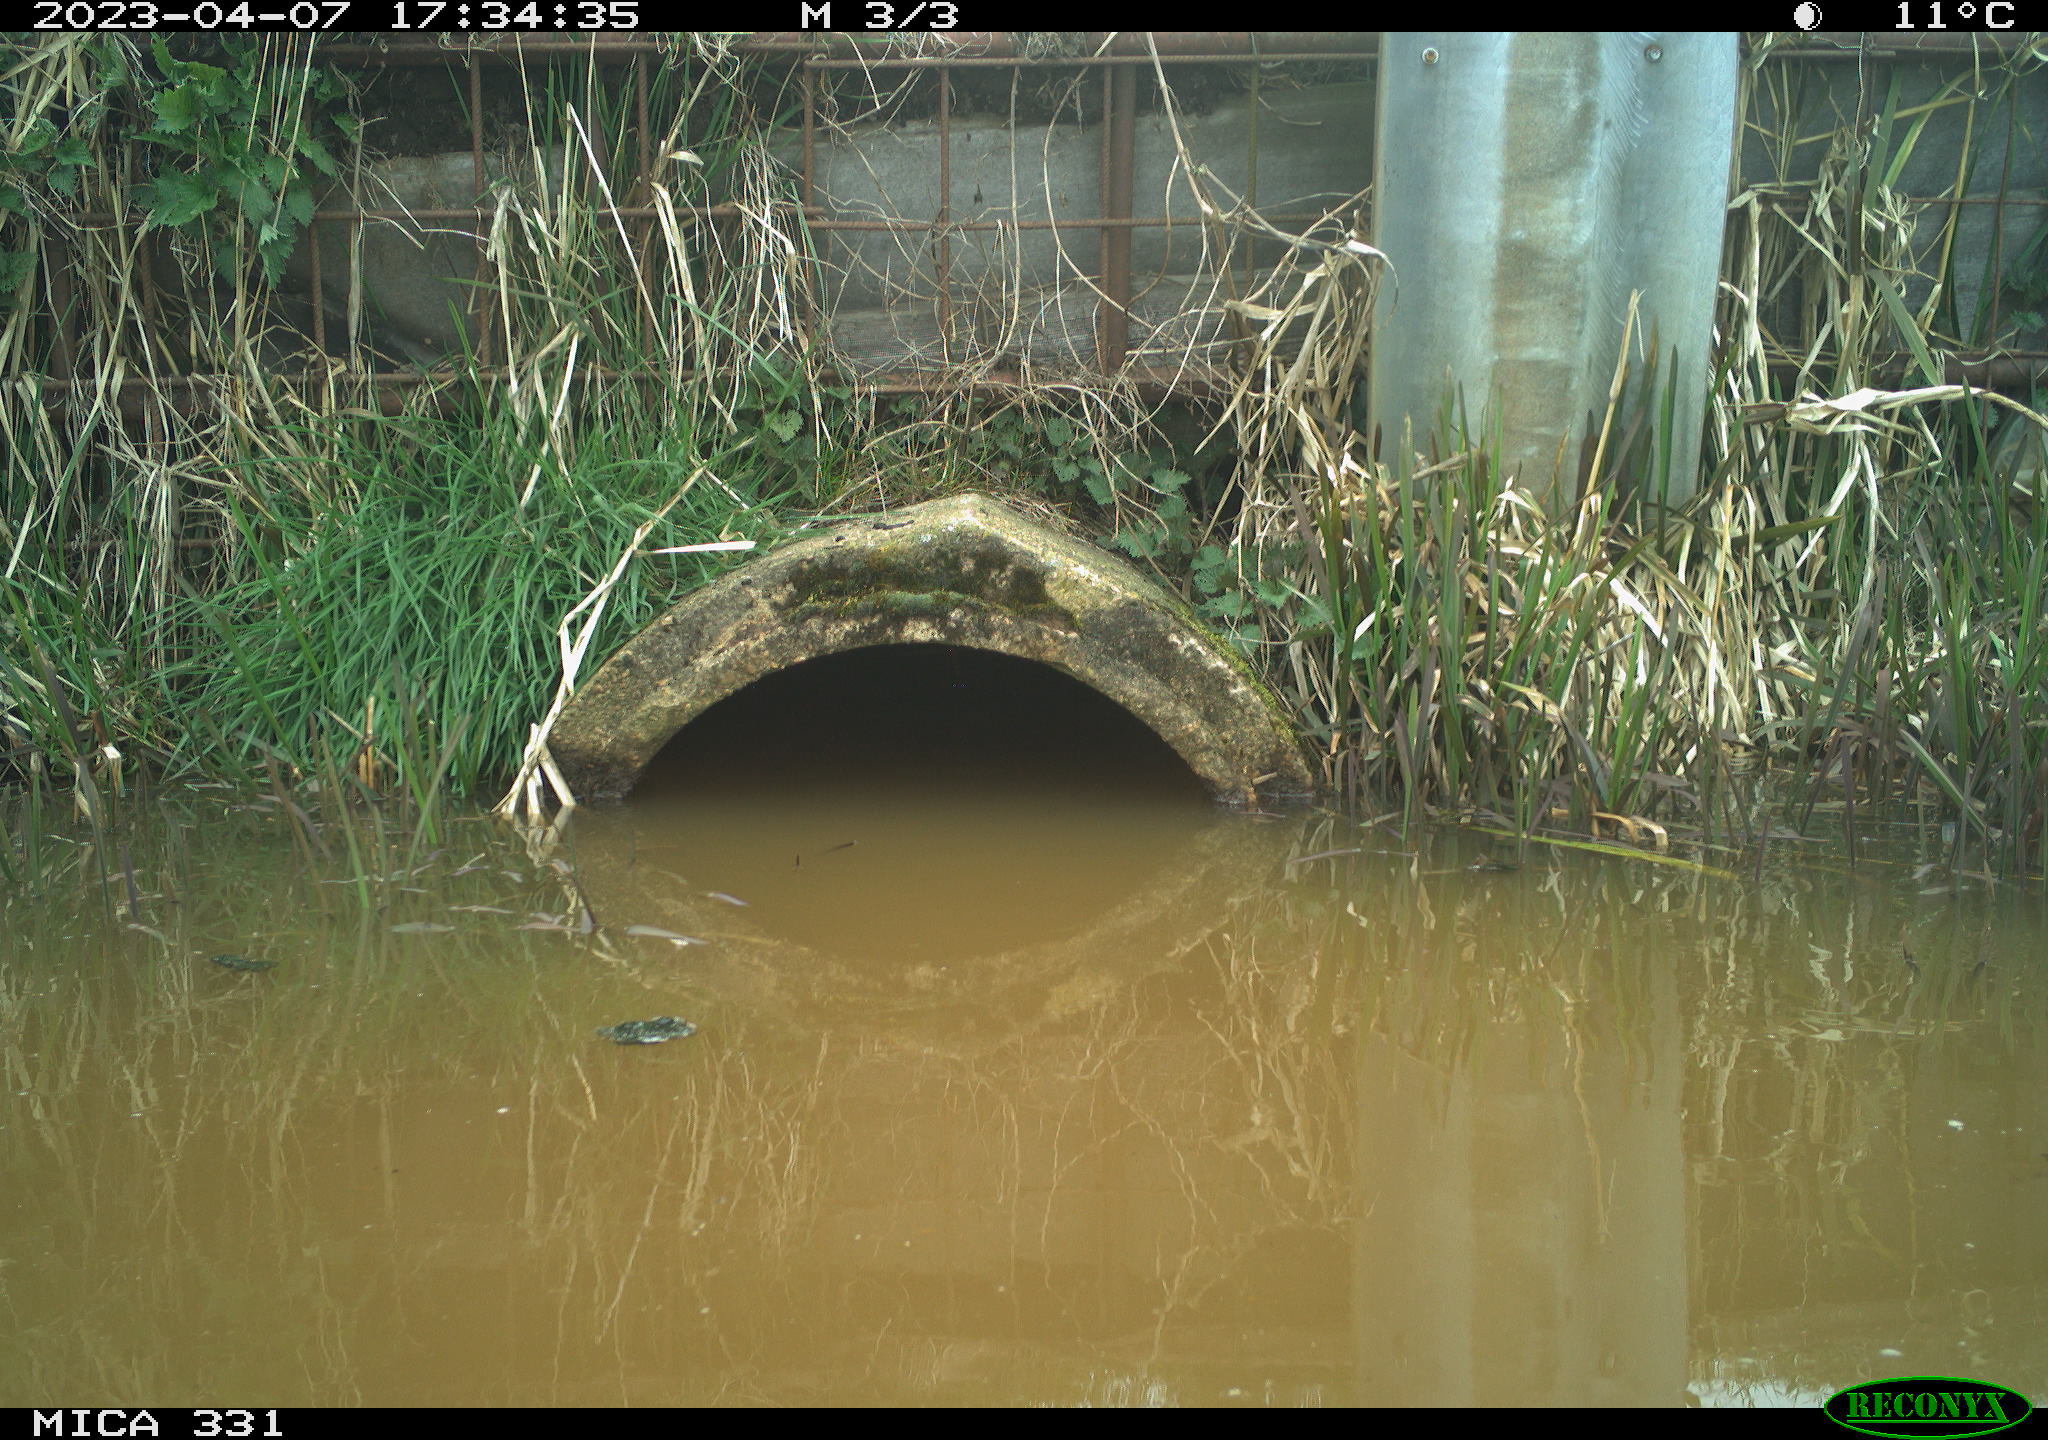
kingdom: Animalia
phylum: Chordata
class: Aves
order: Gruiformes
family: Rallidae
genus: Fulica
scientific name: Fulica atra
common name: Eurasian coot
